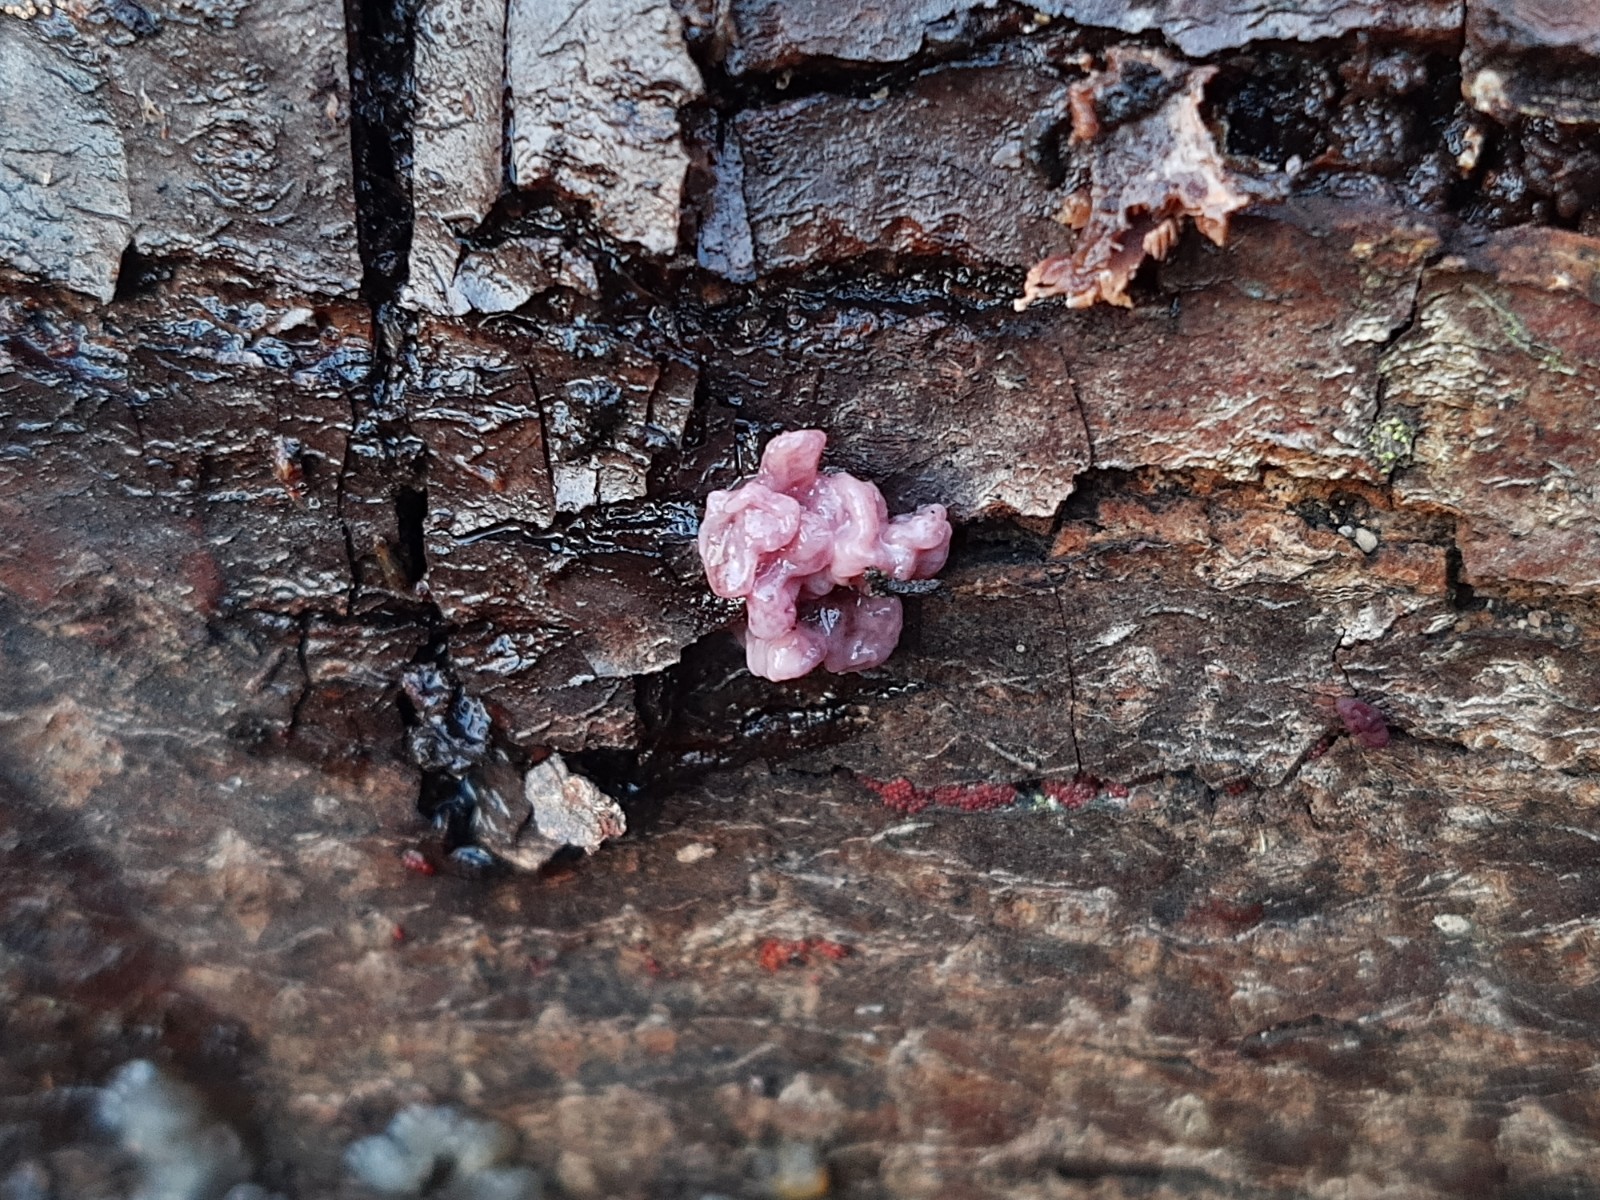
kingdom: Fungi
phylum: Ascomycota
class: Leotiomycetes
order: Helotiales
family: Gelatinodiscaceae
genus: Ascocoryne
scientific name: Ascocoryne sarcoides
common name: rødlilla sejskive
